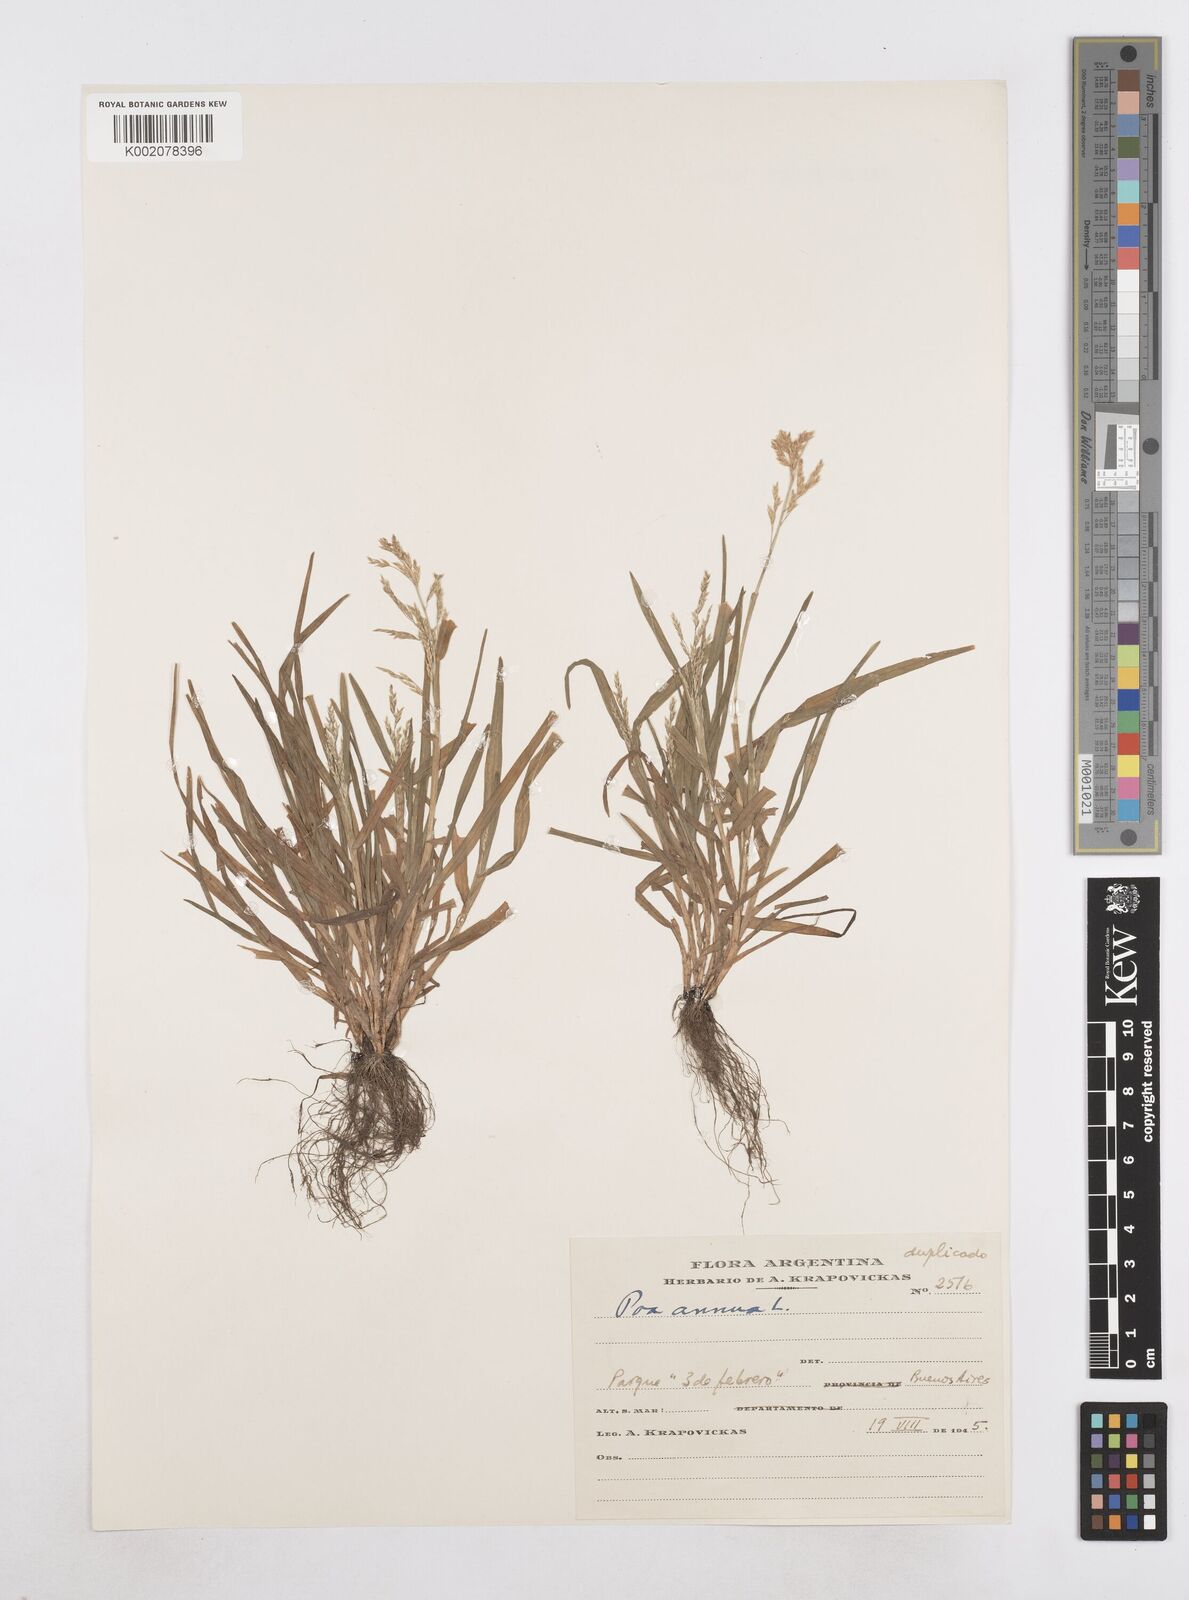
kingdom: Plantae
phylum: Tracheophyta
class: Liliopsida
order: Poales
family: Poaceae
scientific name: Poaceae
